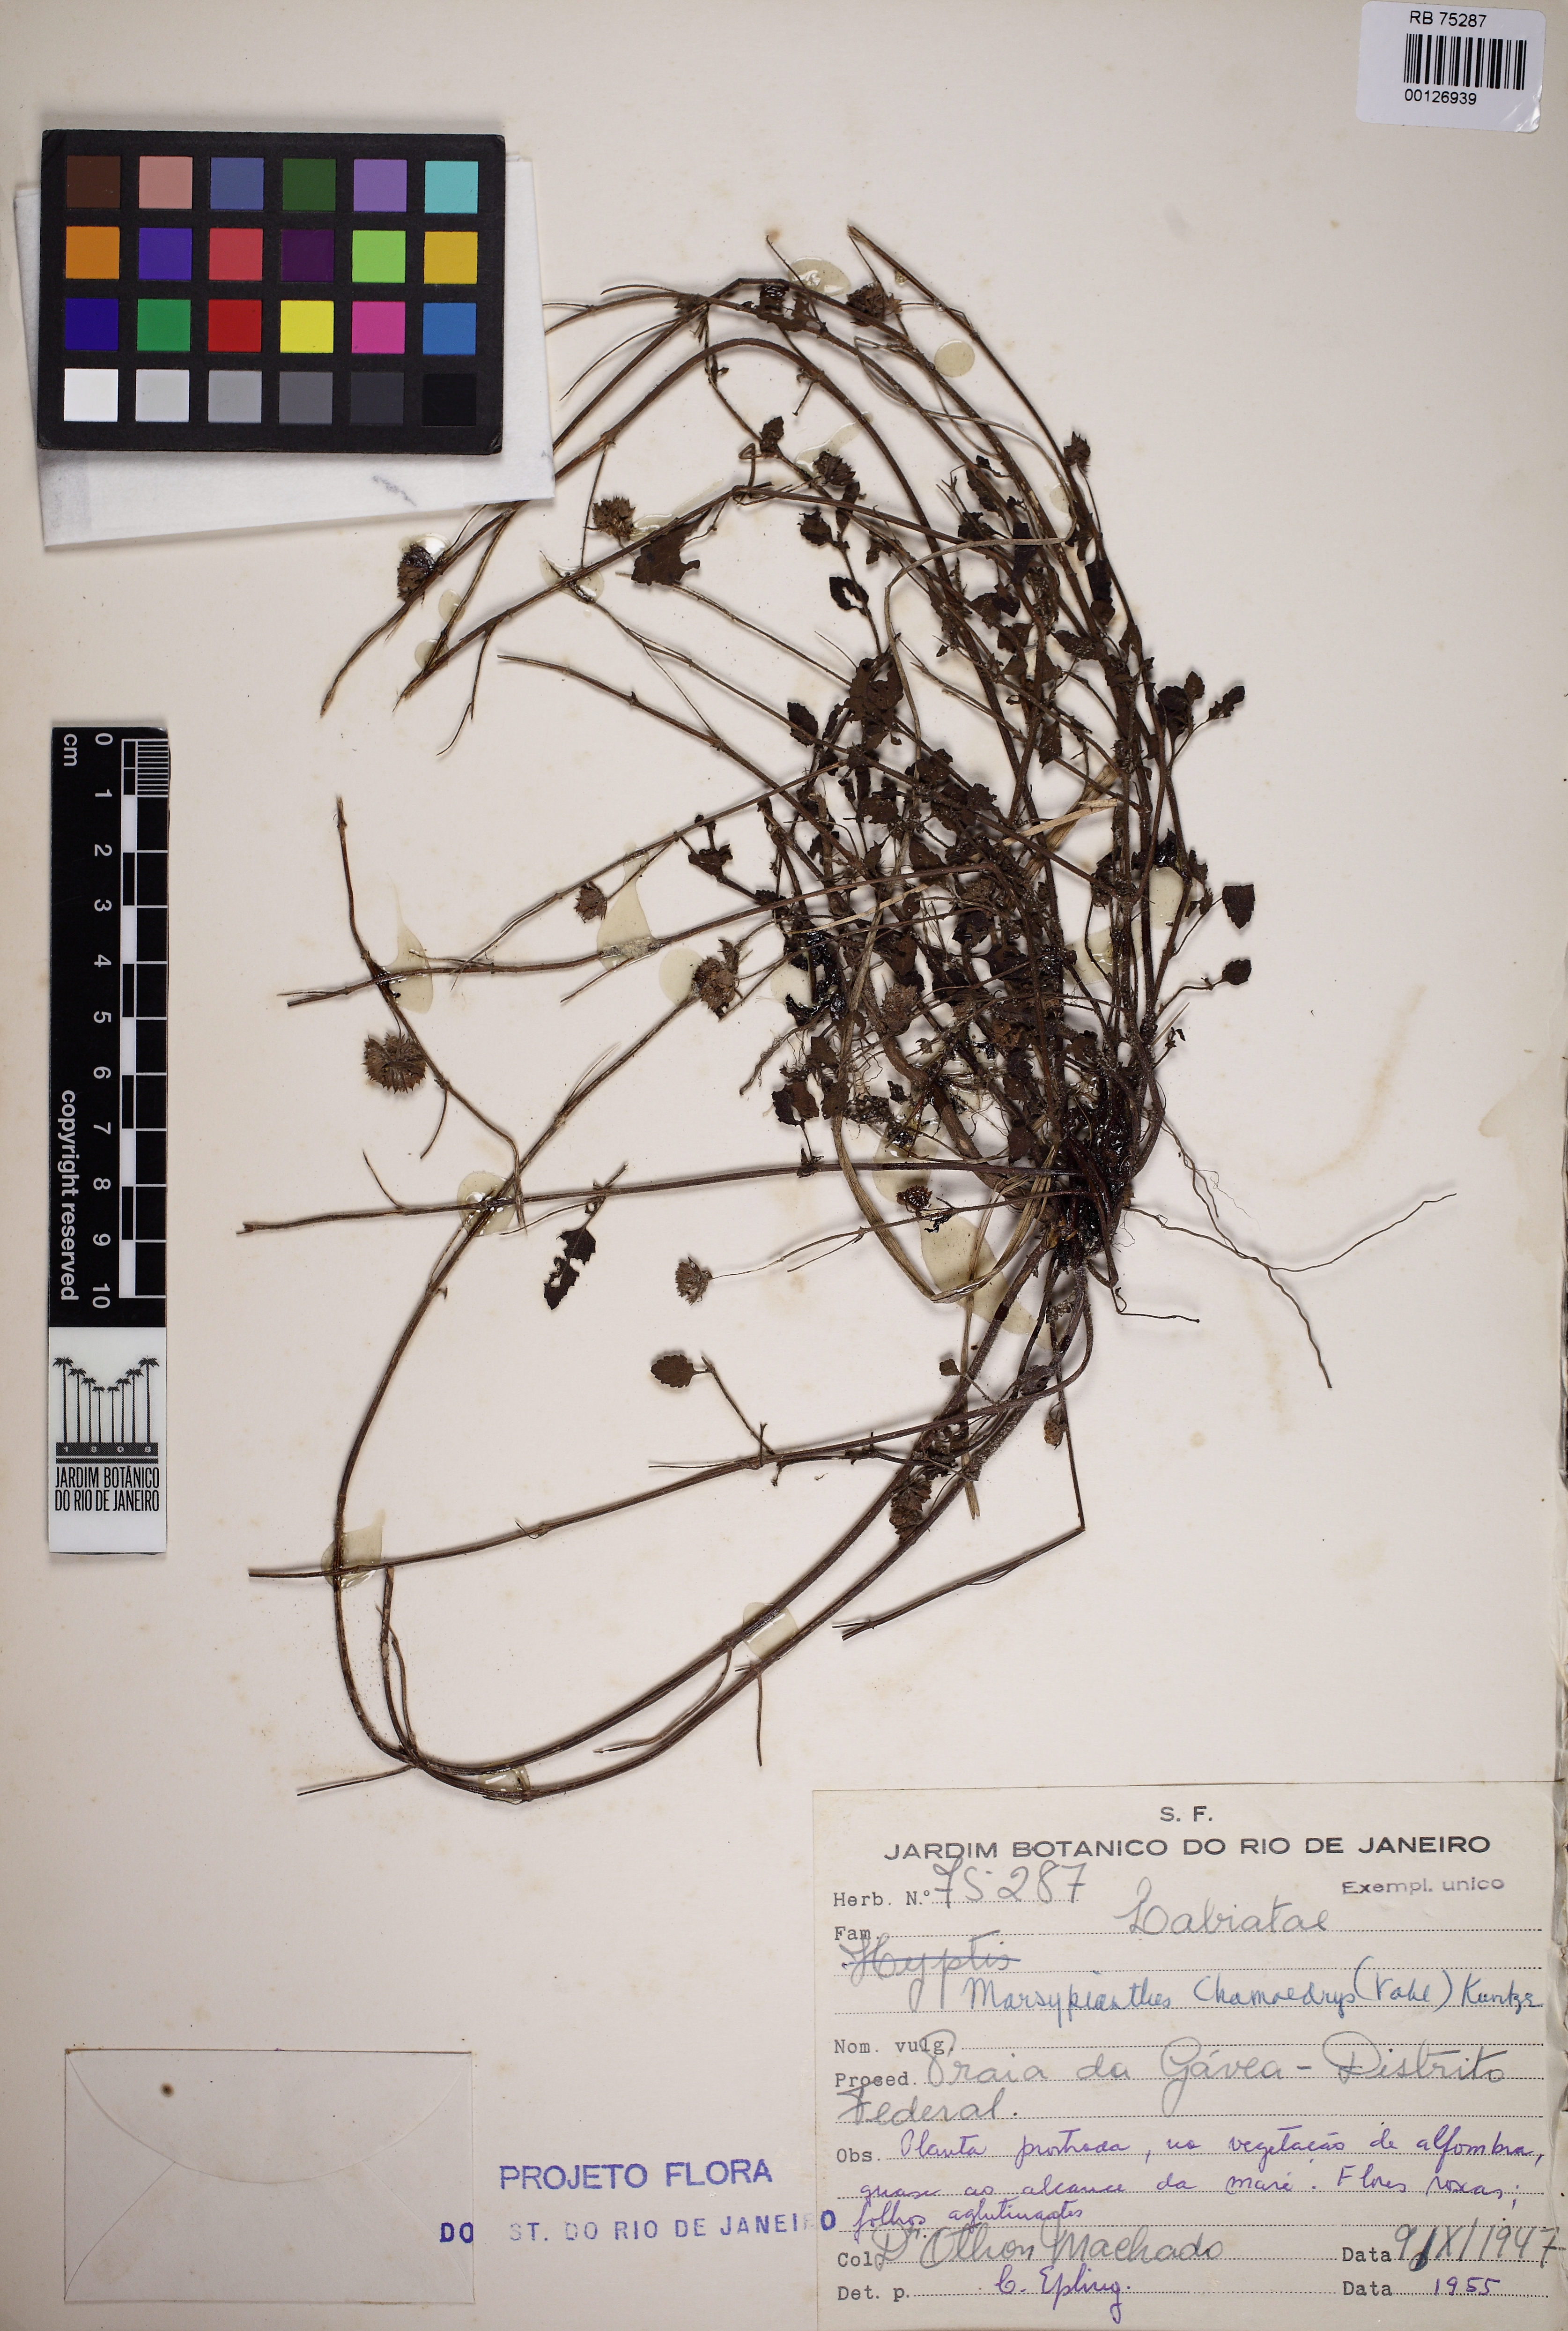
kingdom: Plantae
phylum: Tracheophyta
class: Magnoliopsida
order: Lamiales
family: Lamiaceae
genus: Marsypianthes
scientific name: Marsypianthes chamaedrys
